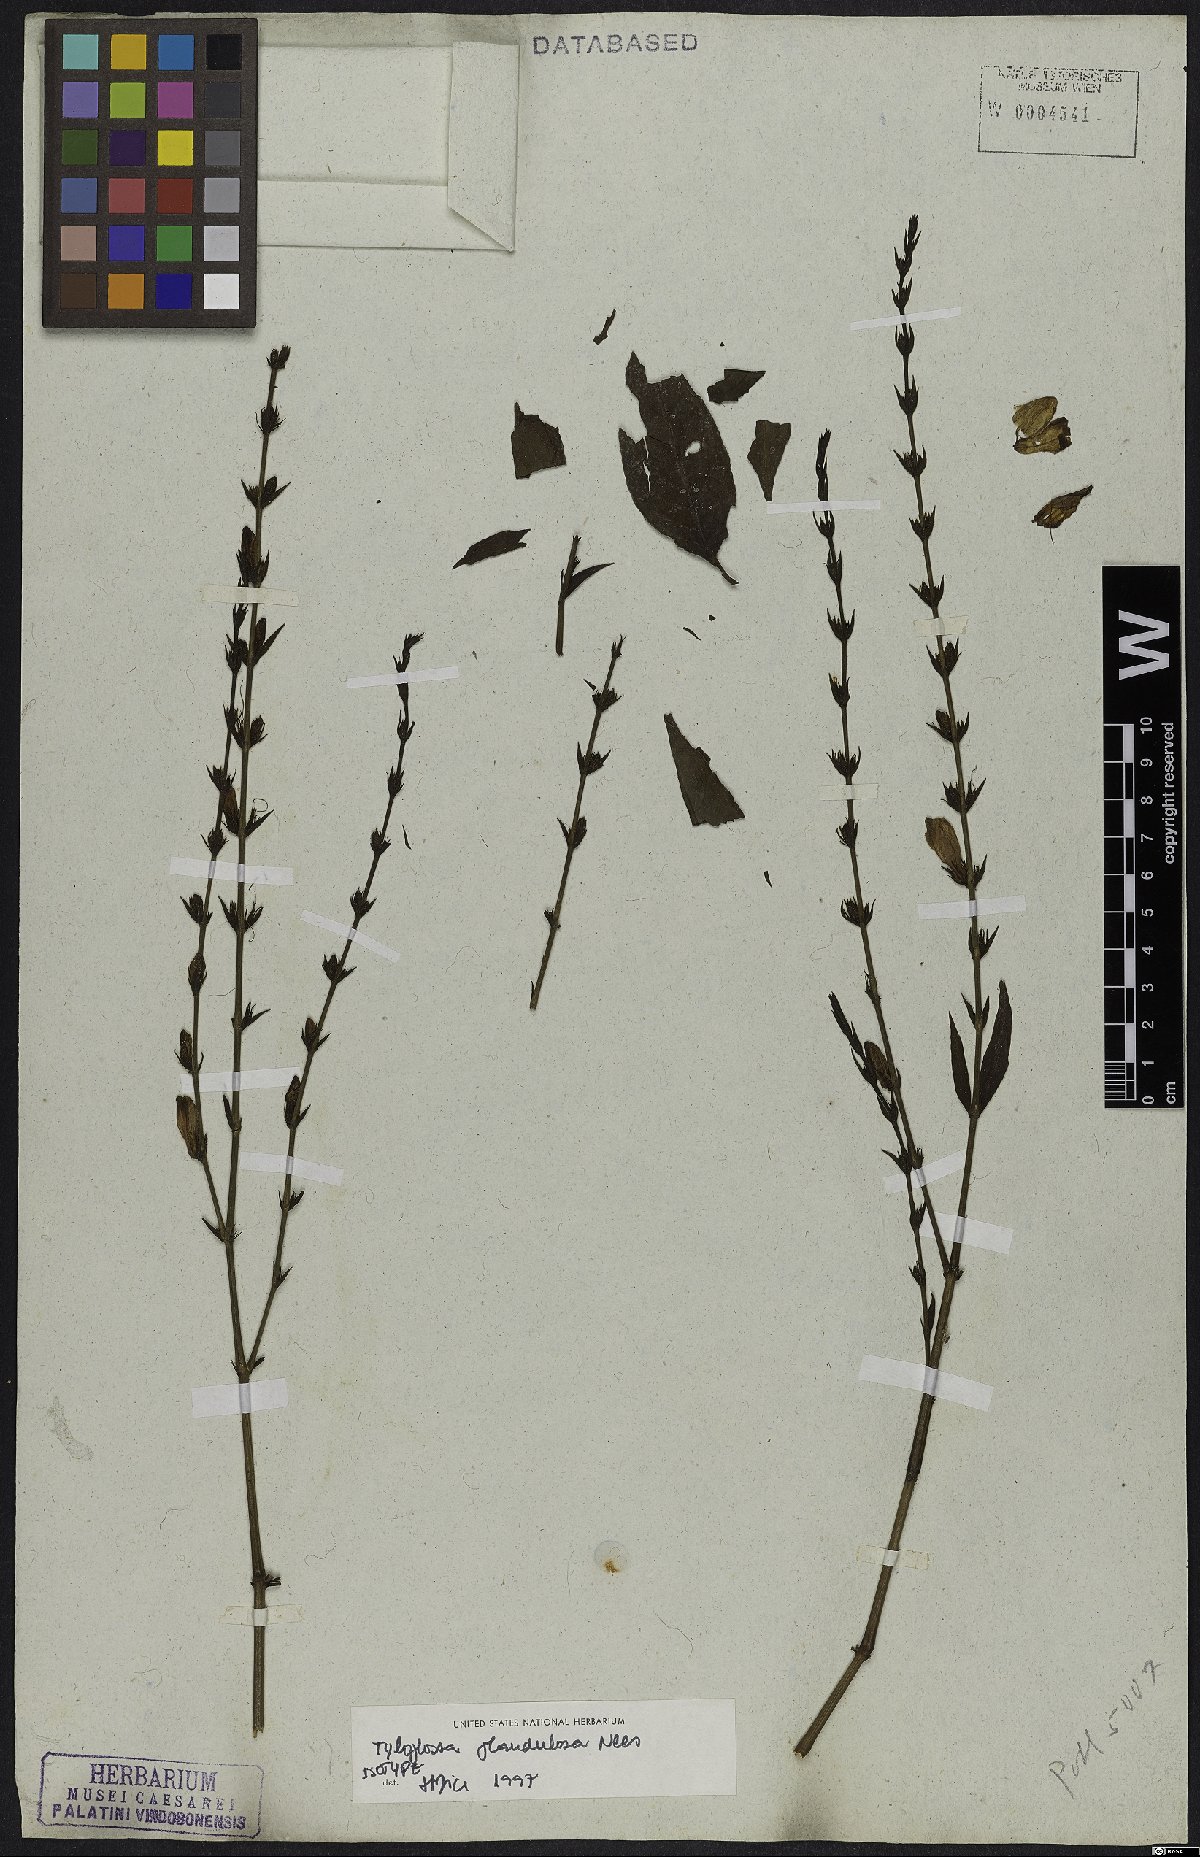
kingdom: Plantae
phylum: Tracheophyta
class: Magnoliopsida
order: Lamiales
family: Acanthaceae
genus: Justicia
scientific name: Justicia goianiensis
